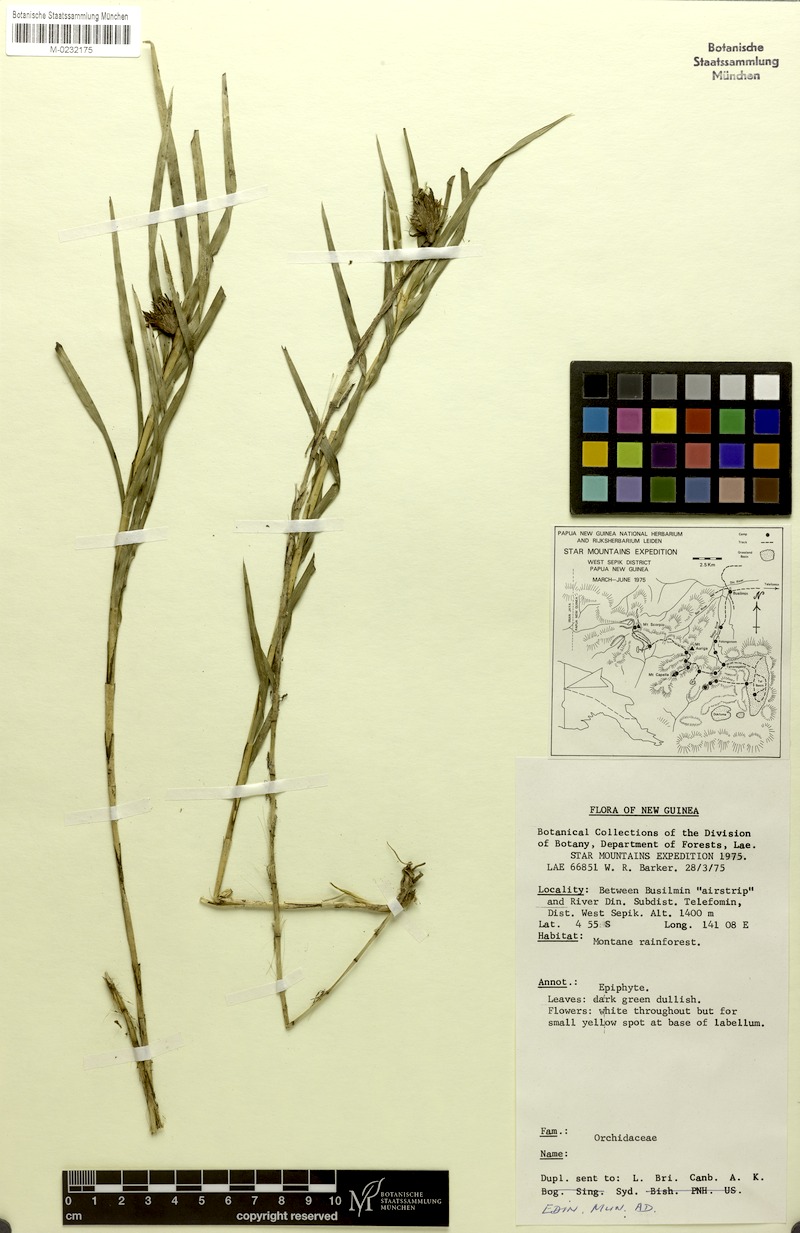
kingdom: Plantae
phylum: Tracheophyta
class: Liliopsida
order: Asparagales
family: Orchidaceae
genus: Agrostophyllum
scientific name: Agrostophyllum barkeri
